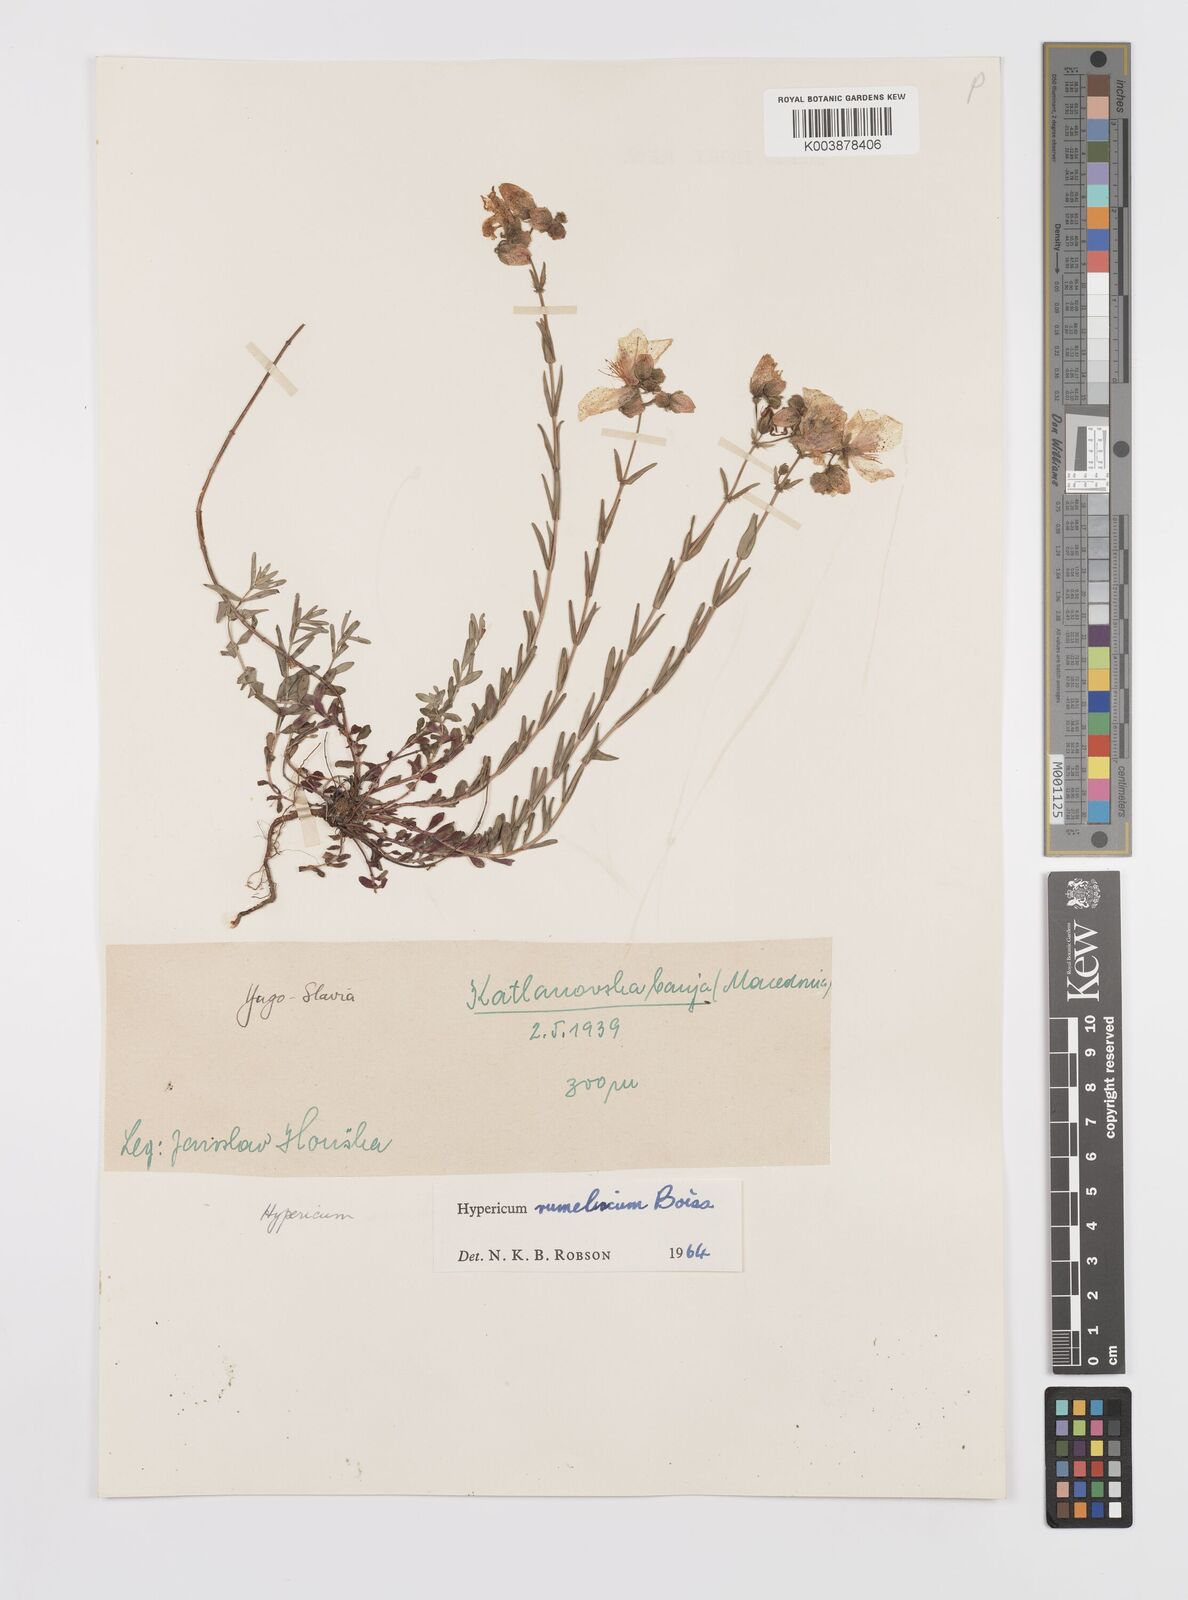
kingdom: Plantae
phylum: Tracheophyta
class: Magnoliopsida
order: Malpighiales
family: Hypericaceae
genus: Hypericum
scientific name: Hypericum rumeliacum
